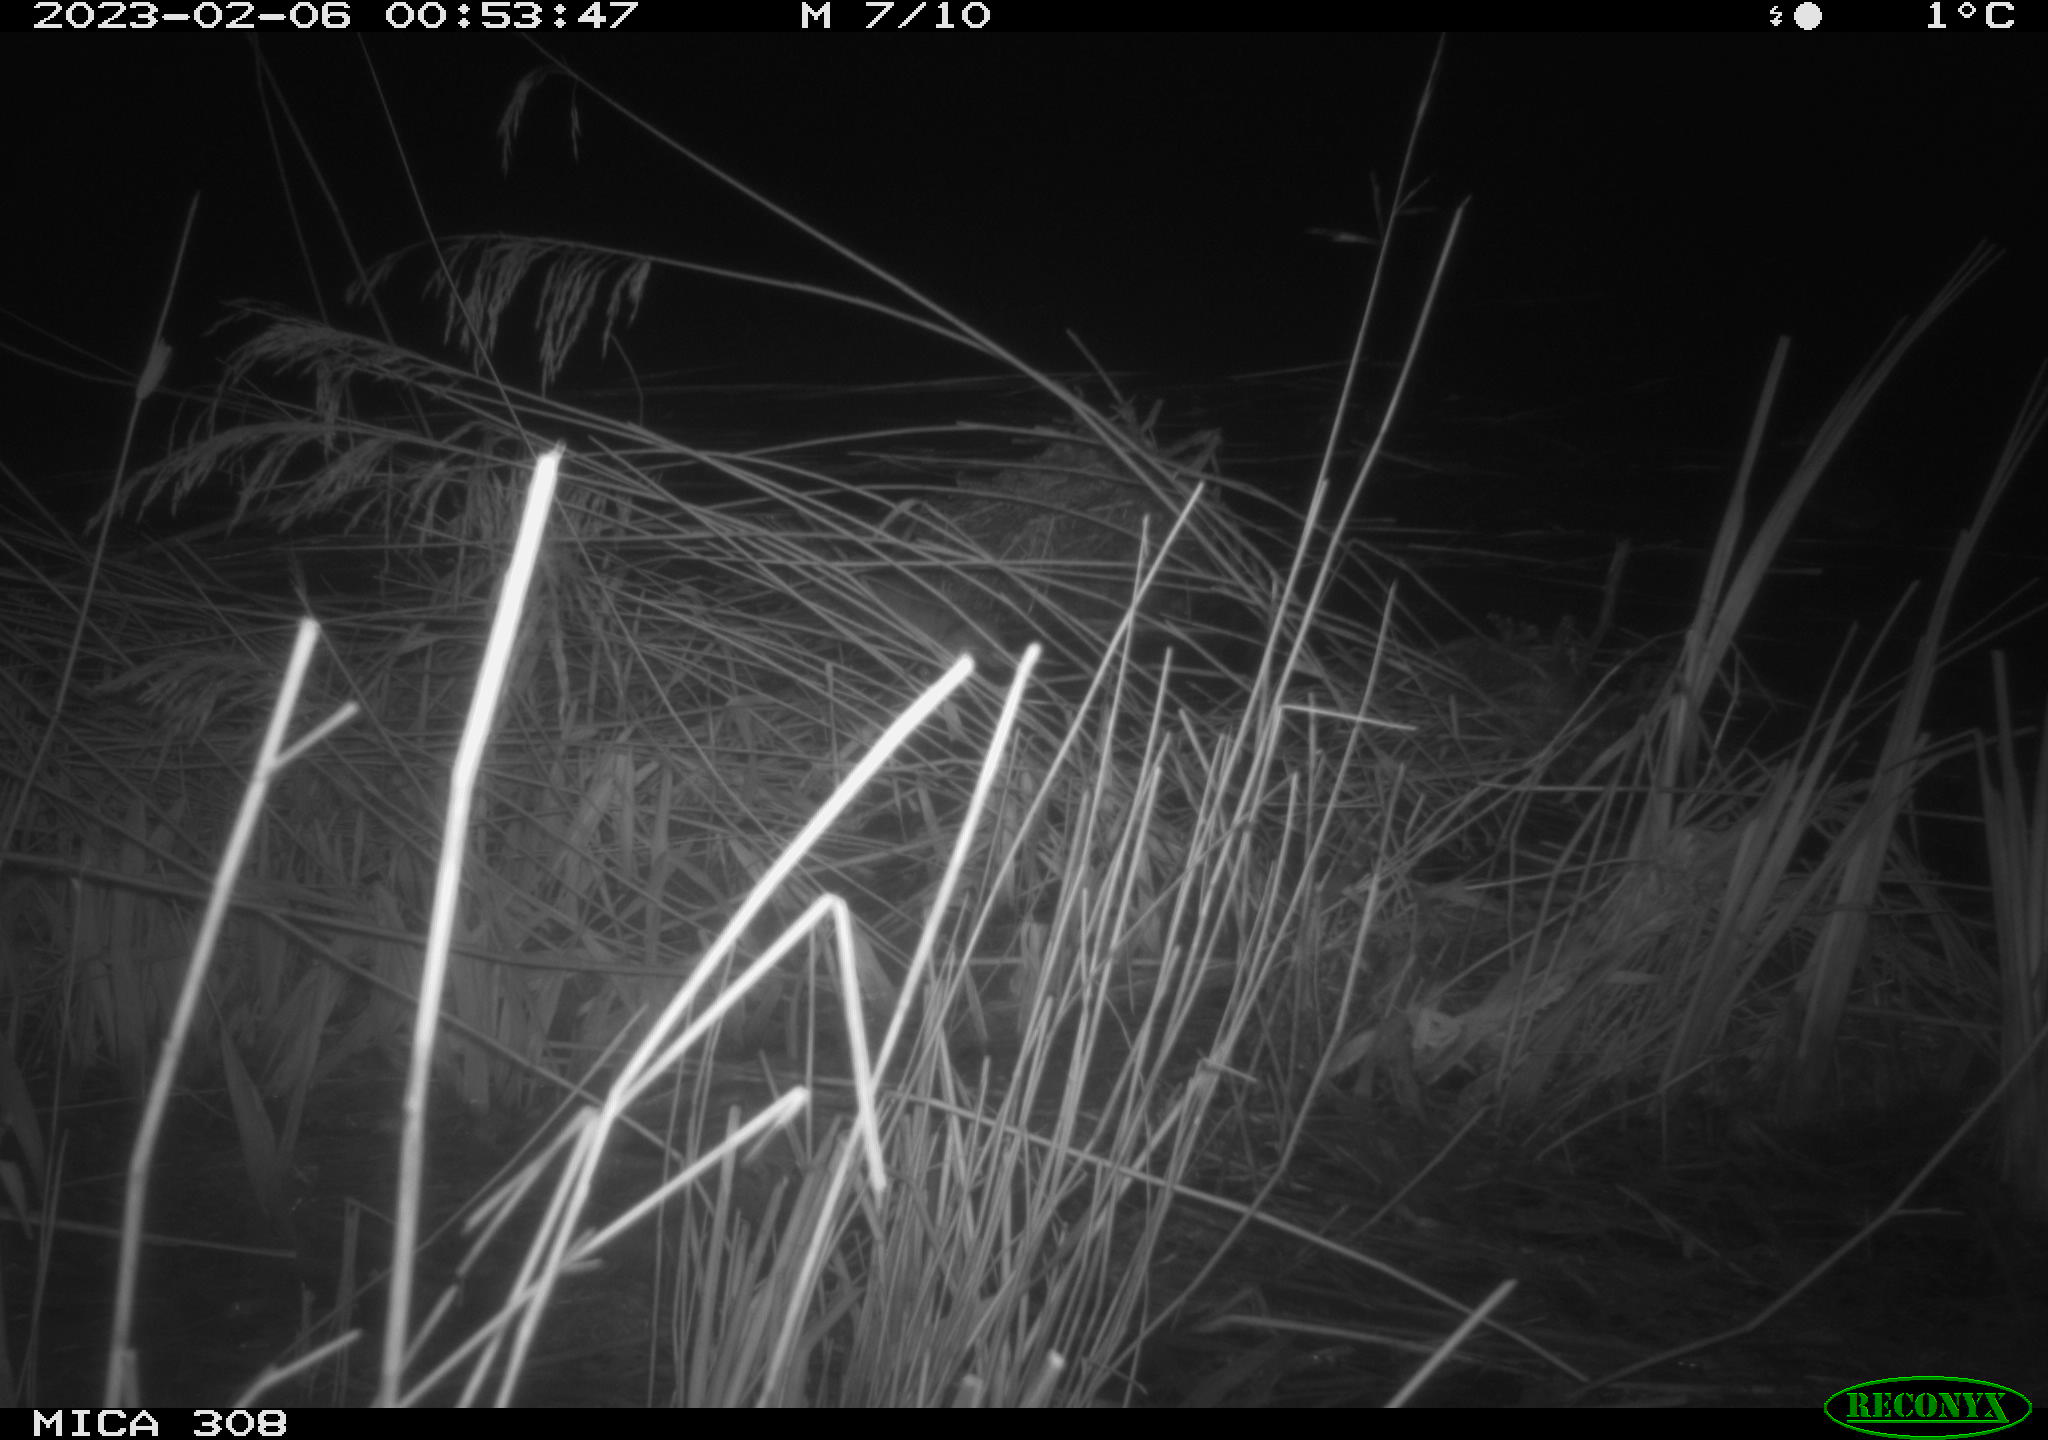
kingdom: Animalia
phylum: Chordata
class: Aves
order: Anseriformes
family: Anatidae
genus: Anas
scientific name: Anas
